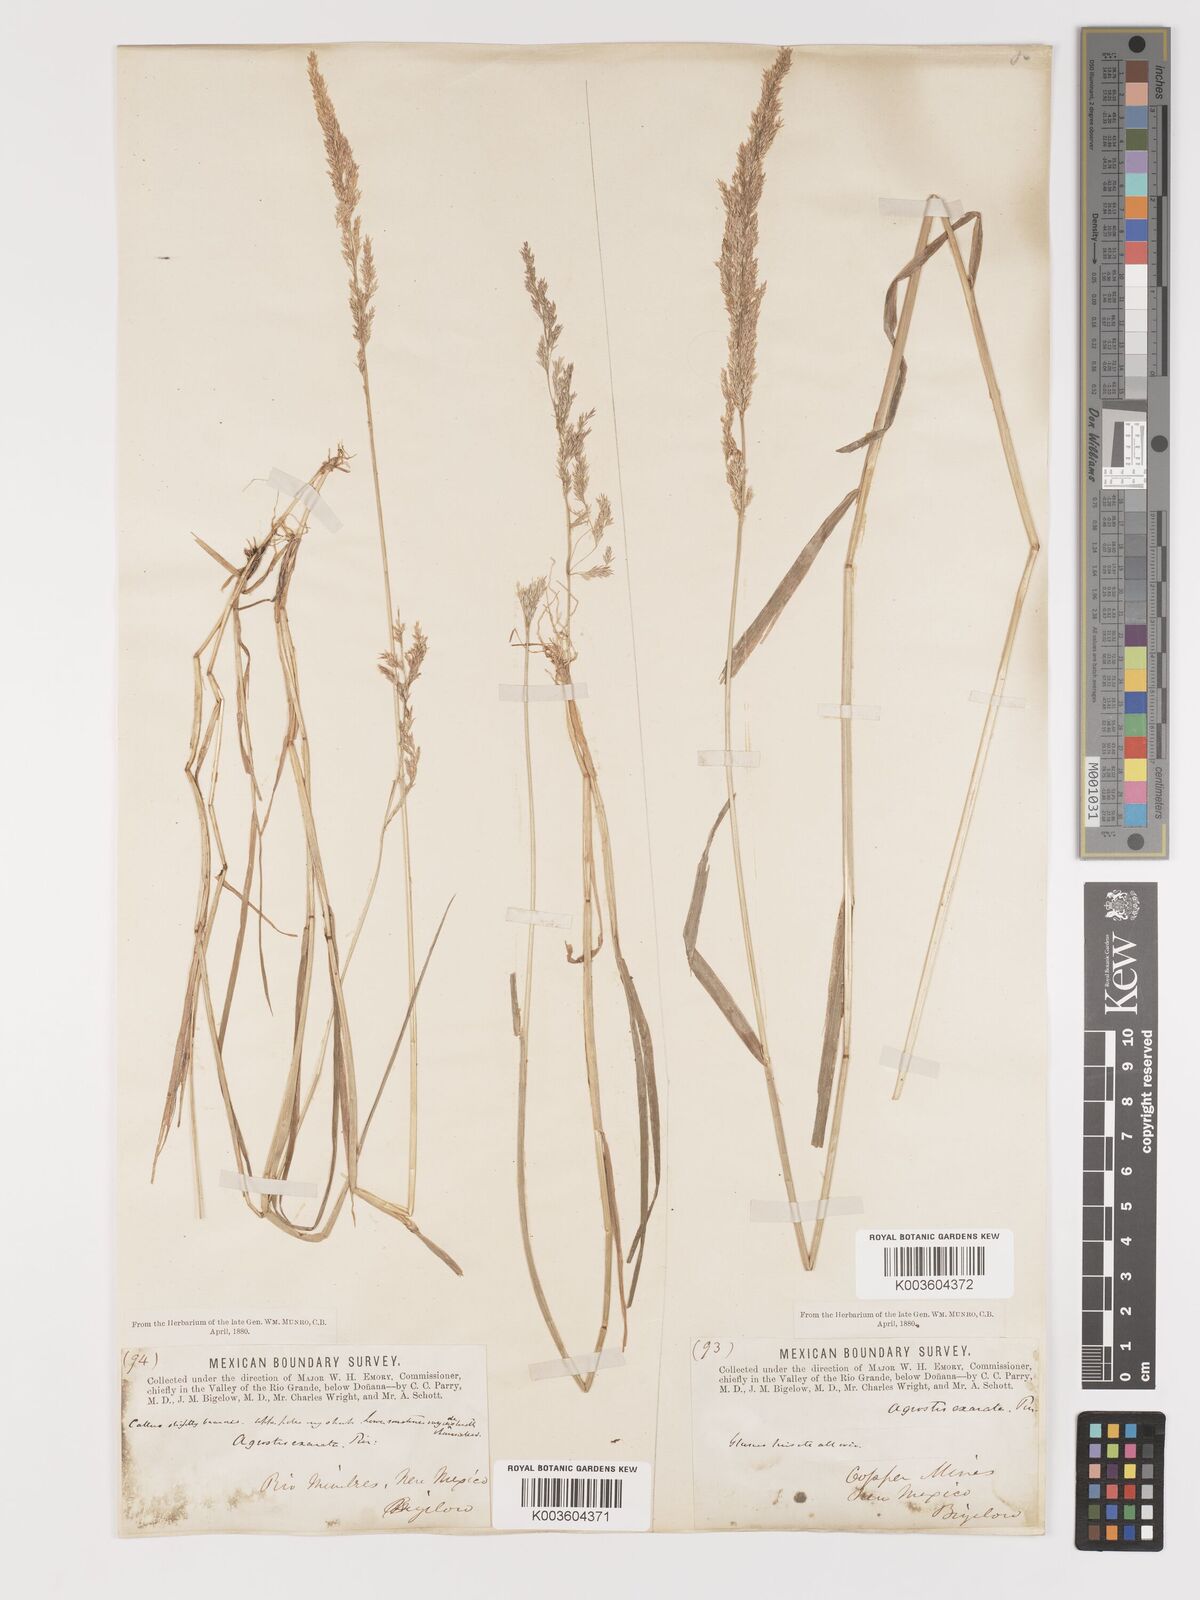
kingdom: Plantae
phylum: Tracheophyta
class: Liliopsida
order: Poales
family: Poaceae
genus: Agrostis
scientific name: Agrostis exarata
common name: Spike bent
